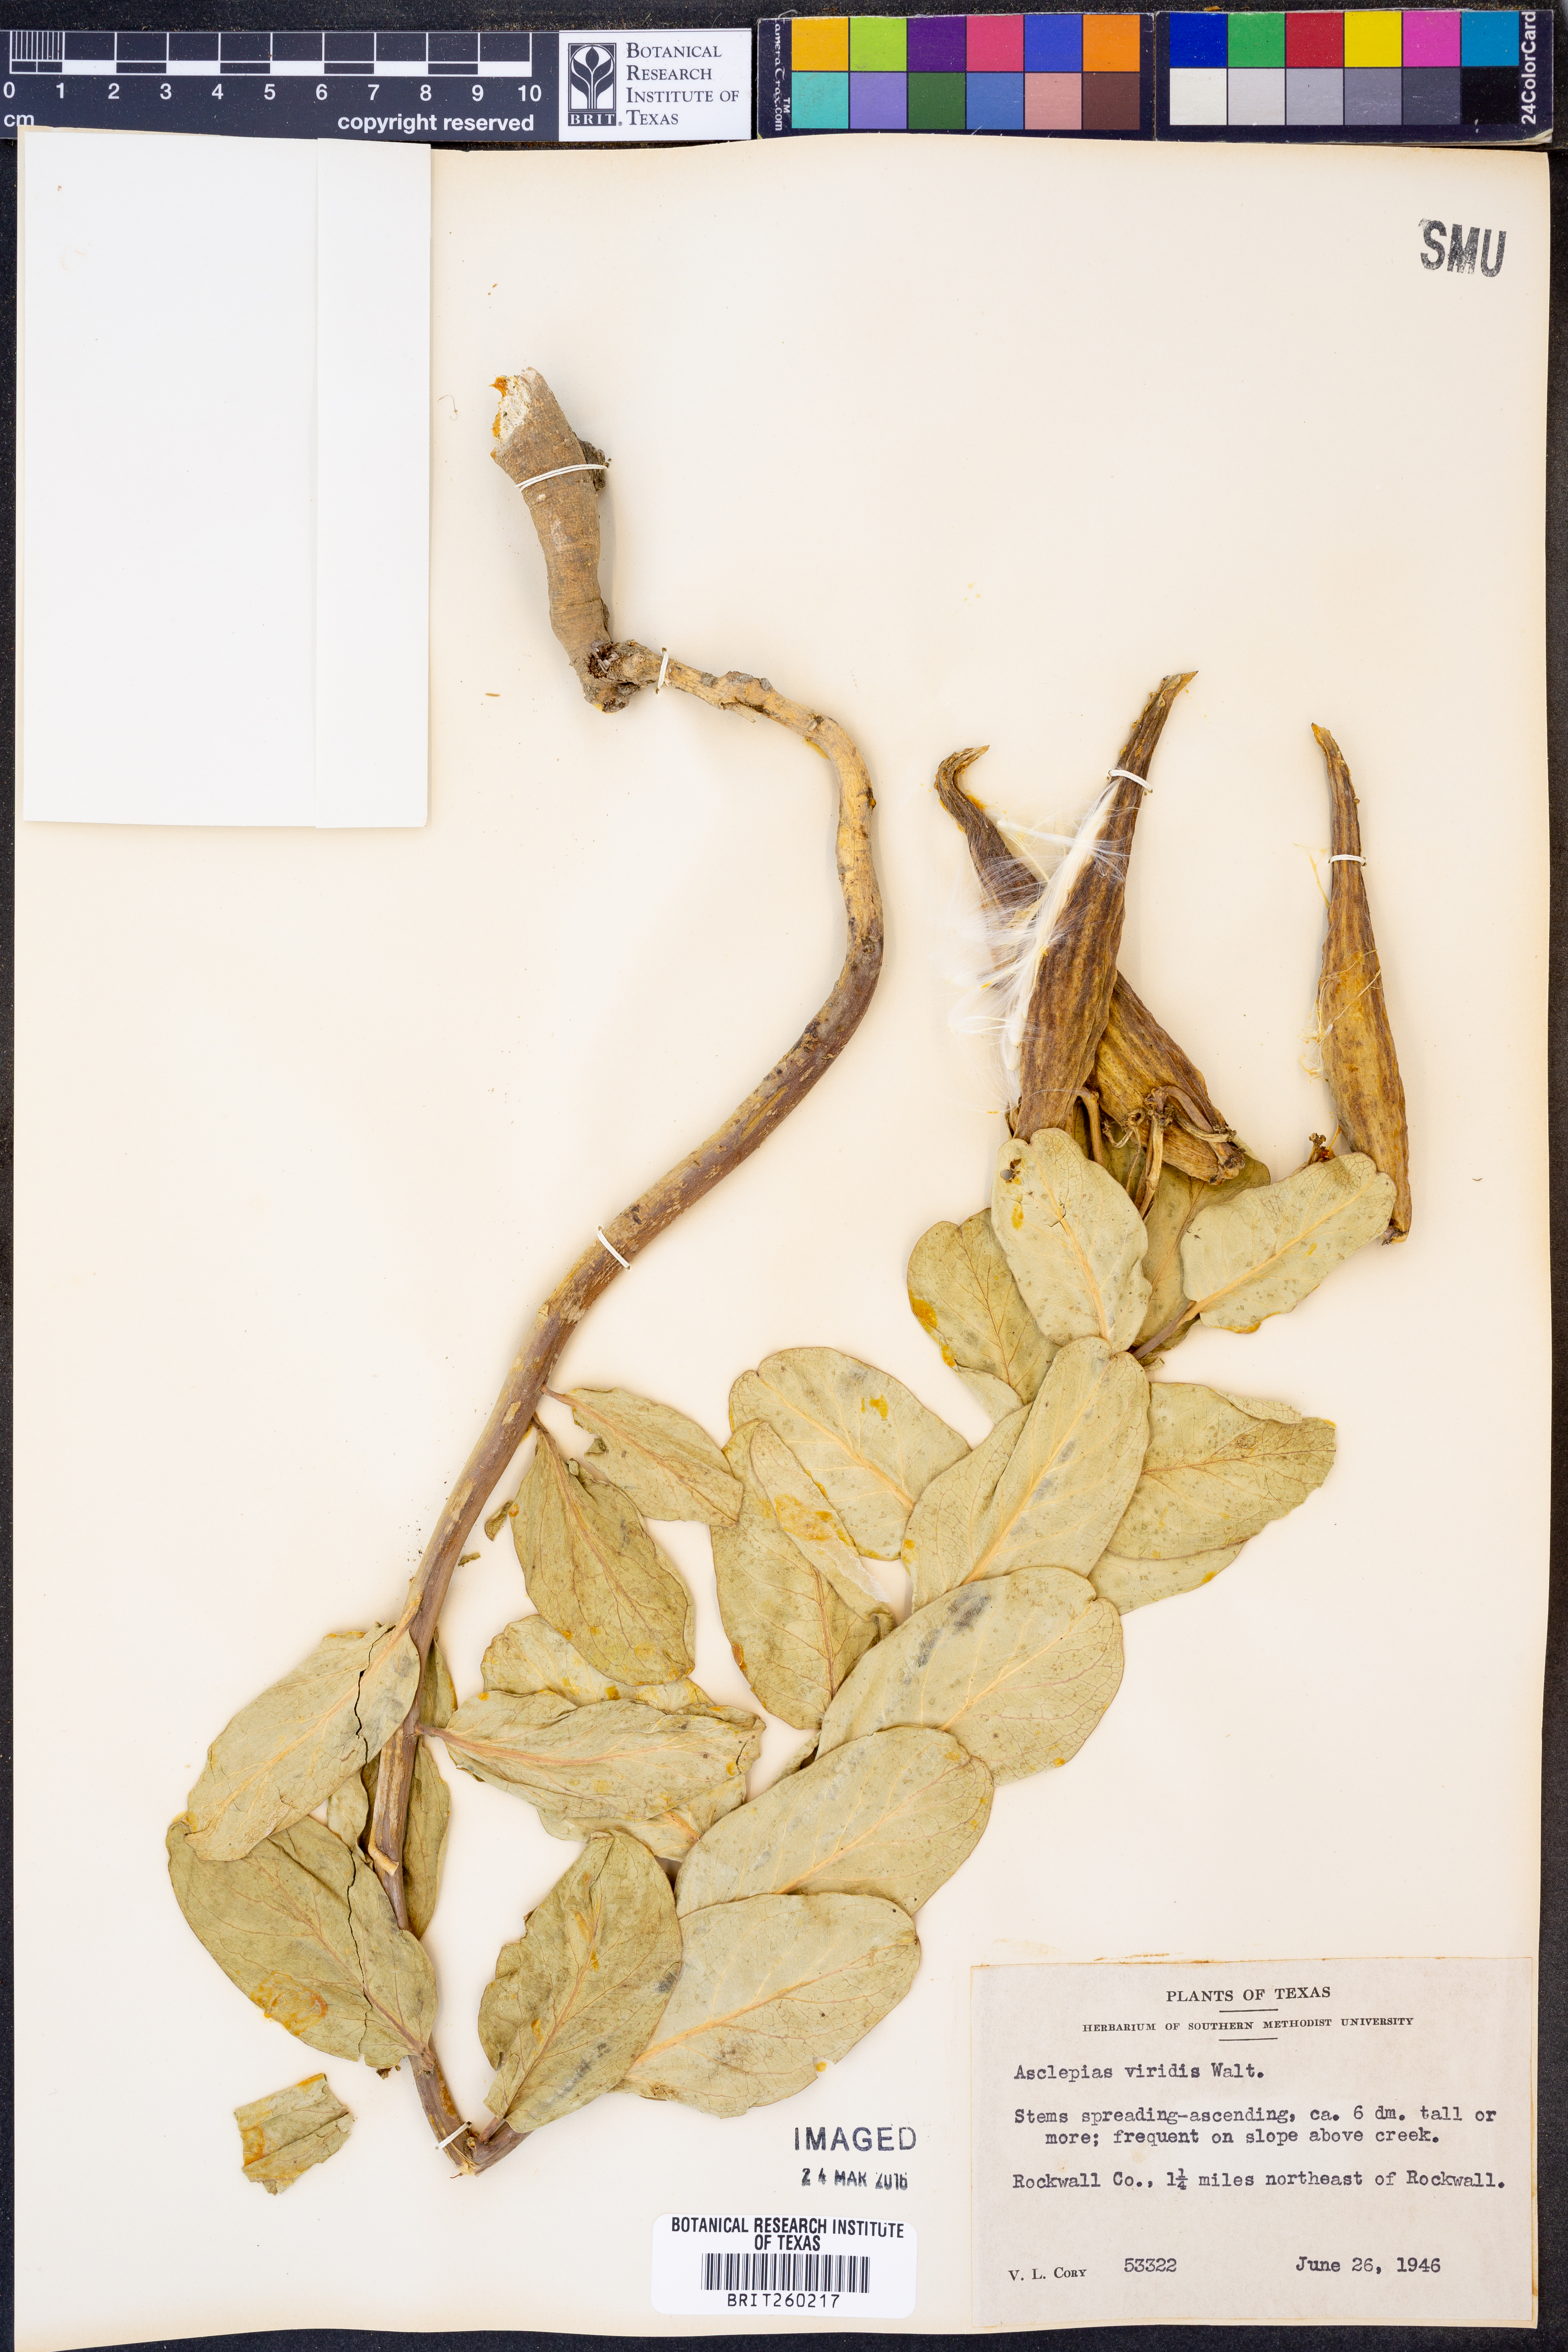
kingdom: Plantae
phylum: Tracheophyta
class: Magnoliopsida
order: Gentianales
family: Apocynaceae
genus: Asclepias
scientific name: Asclepias viridis
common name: Antelope-horns
